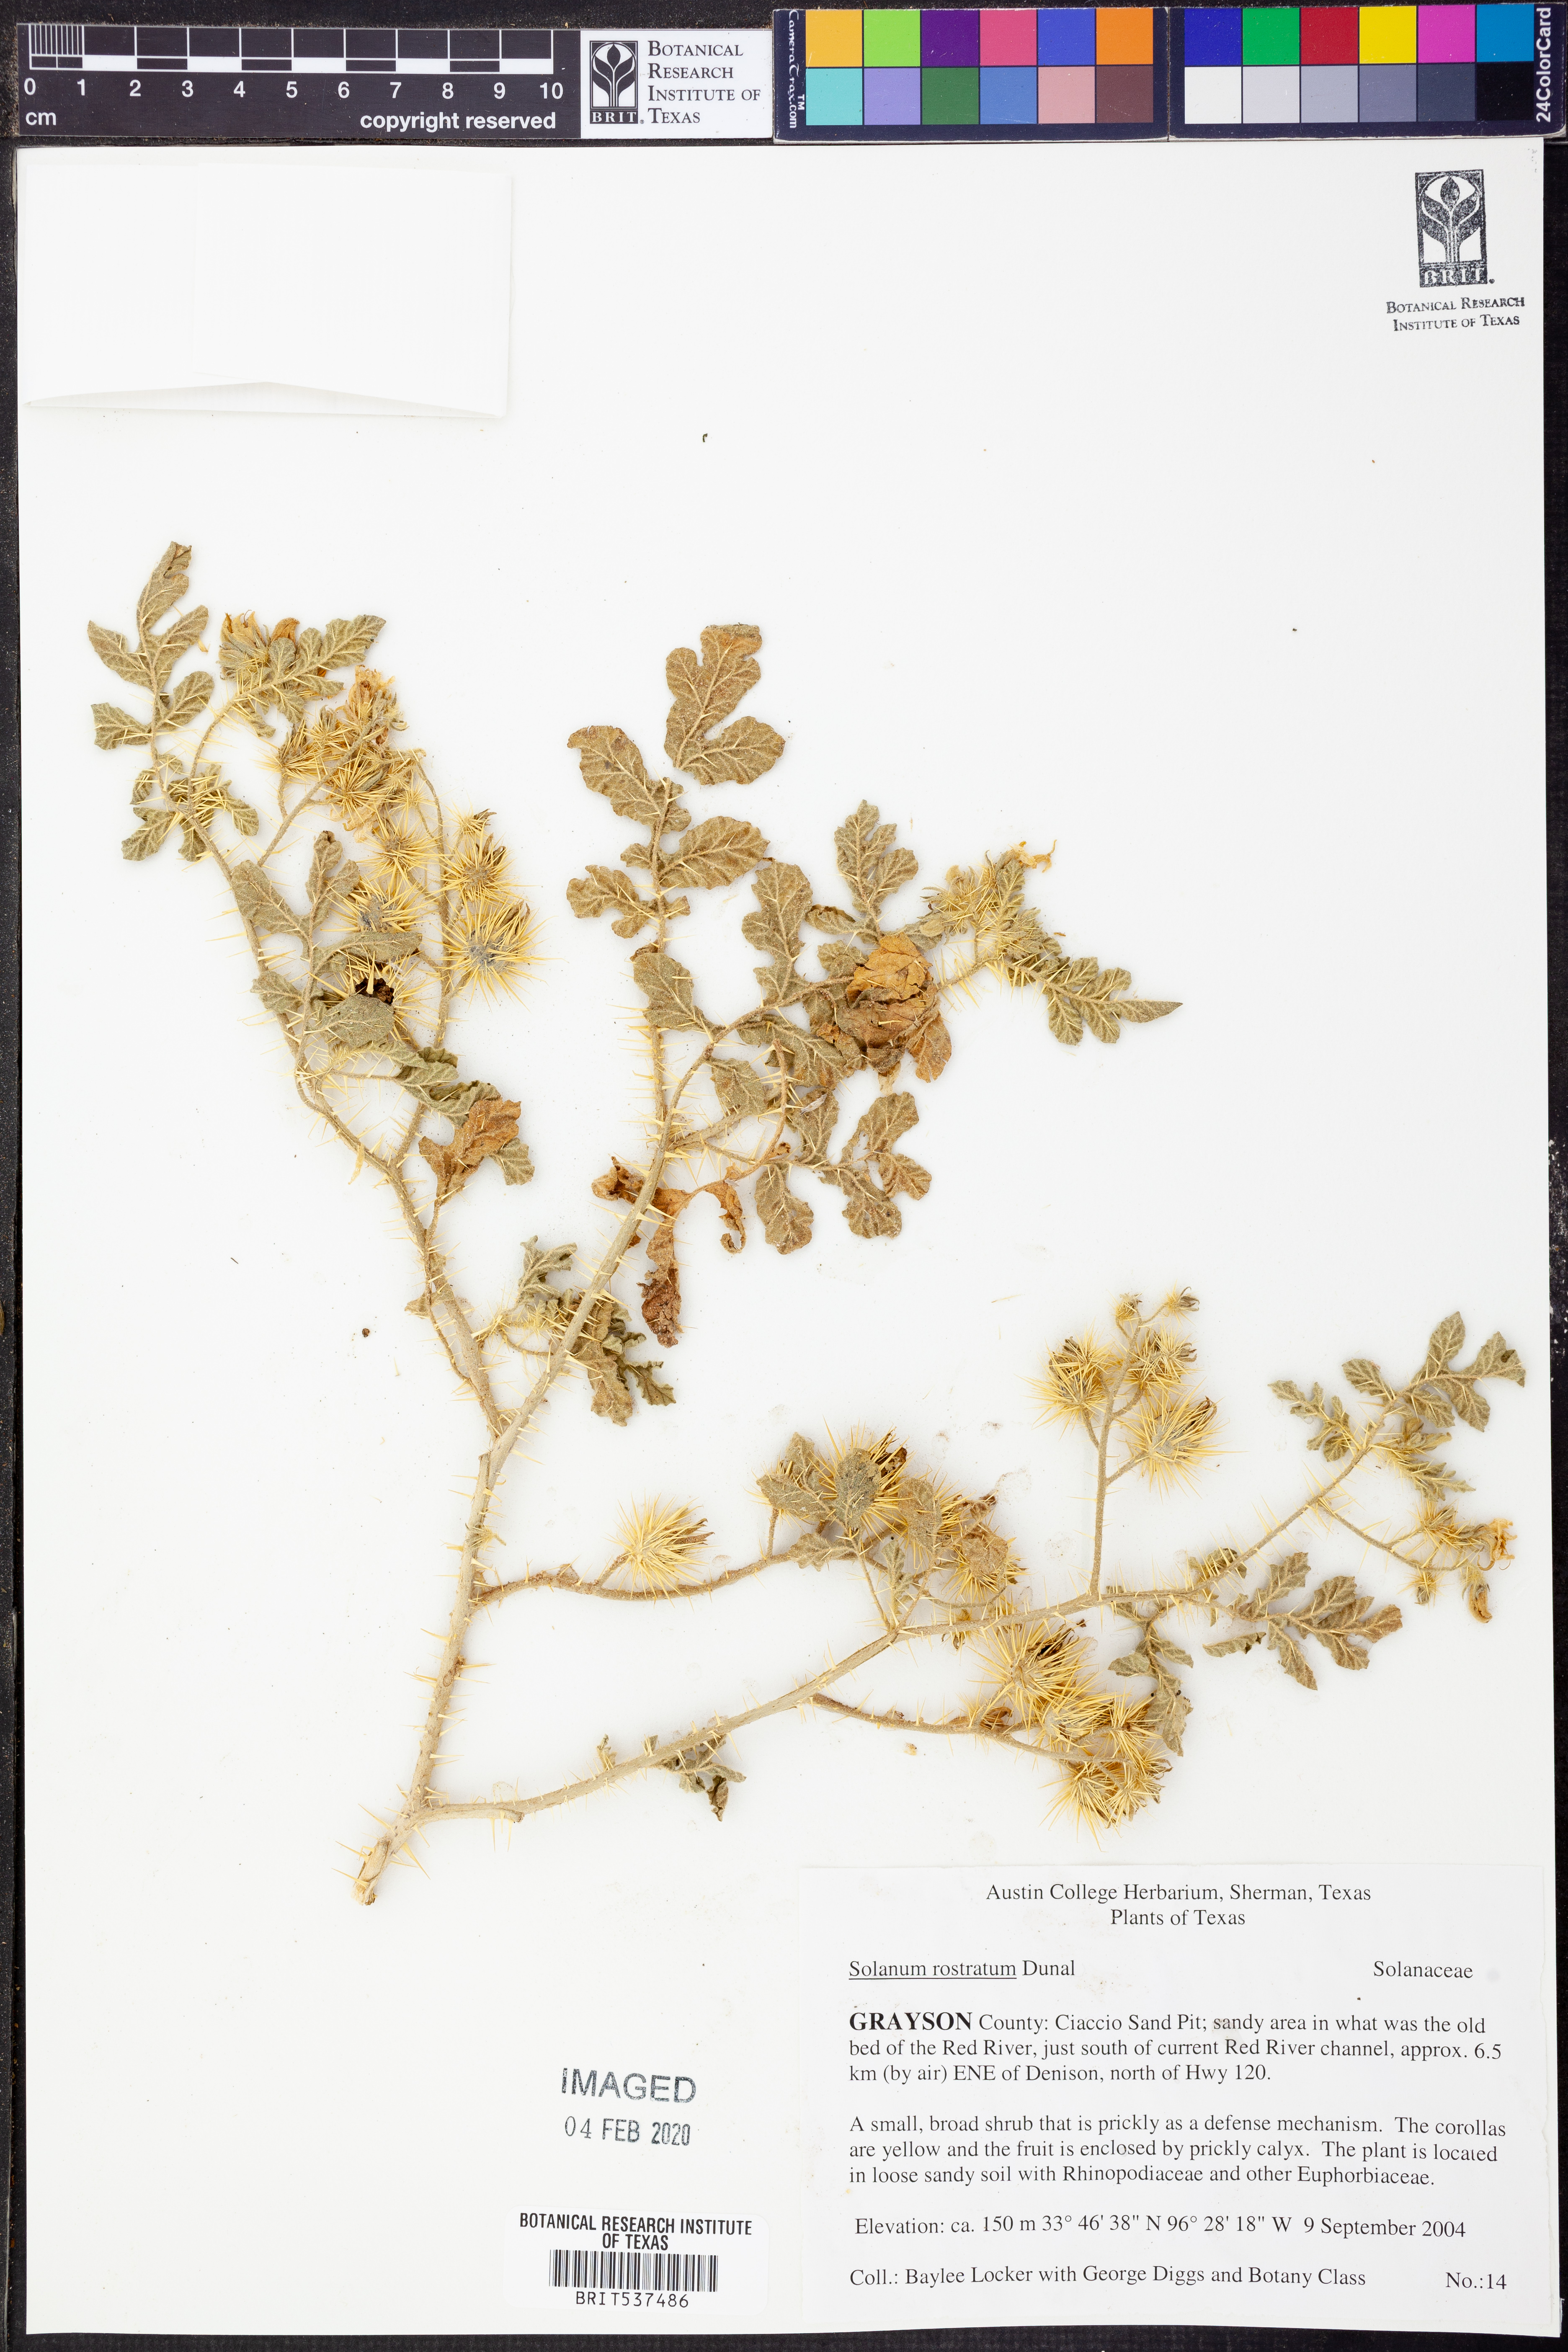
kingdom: Plantae
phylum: Tracheophyta
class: Magnoliopsida
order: Solanales
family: Solanaceae
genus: Solanum
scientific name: Solanum angustifolium
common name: Buffalobur nightshade
